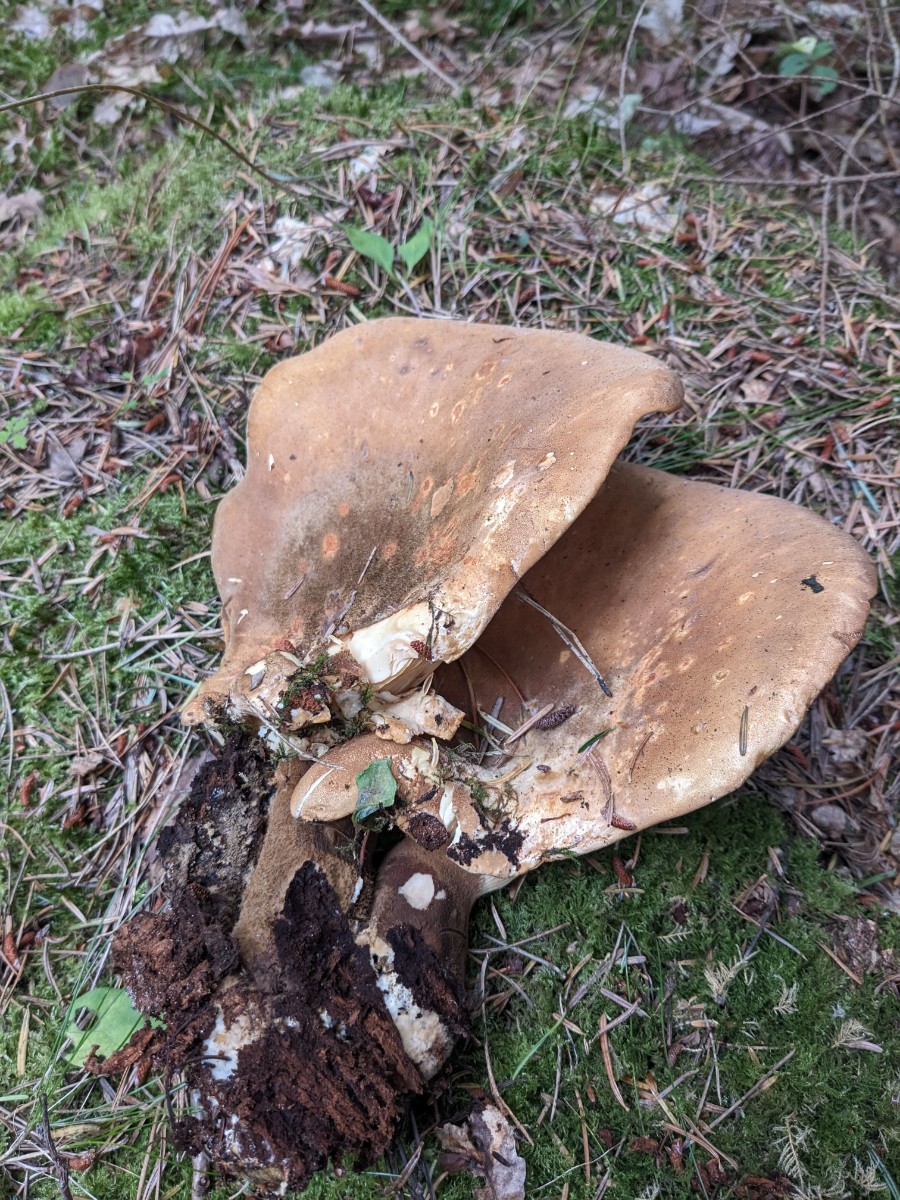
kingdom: Fungi
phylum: Basidiomycota
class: Agaricomycetes
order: Boletales
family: Tapinellaceae
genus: Tapinella
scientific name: Tapinella atrotomentosa
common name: sortfiltet viftesvamp
